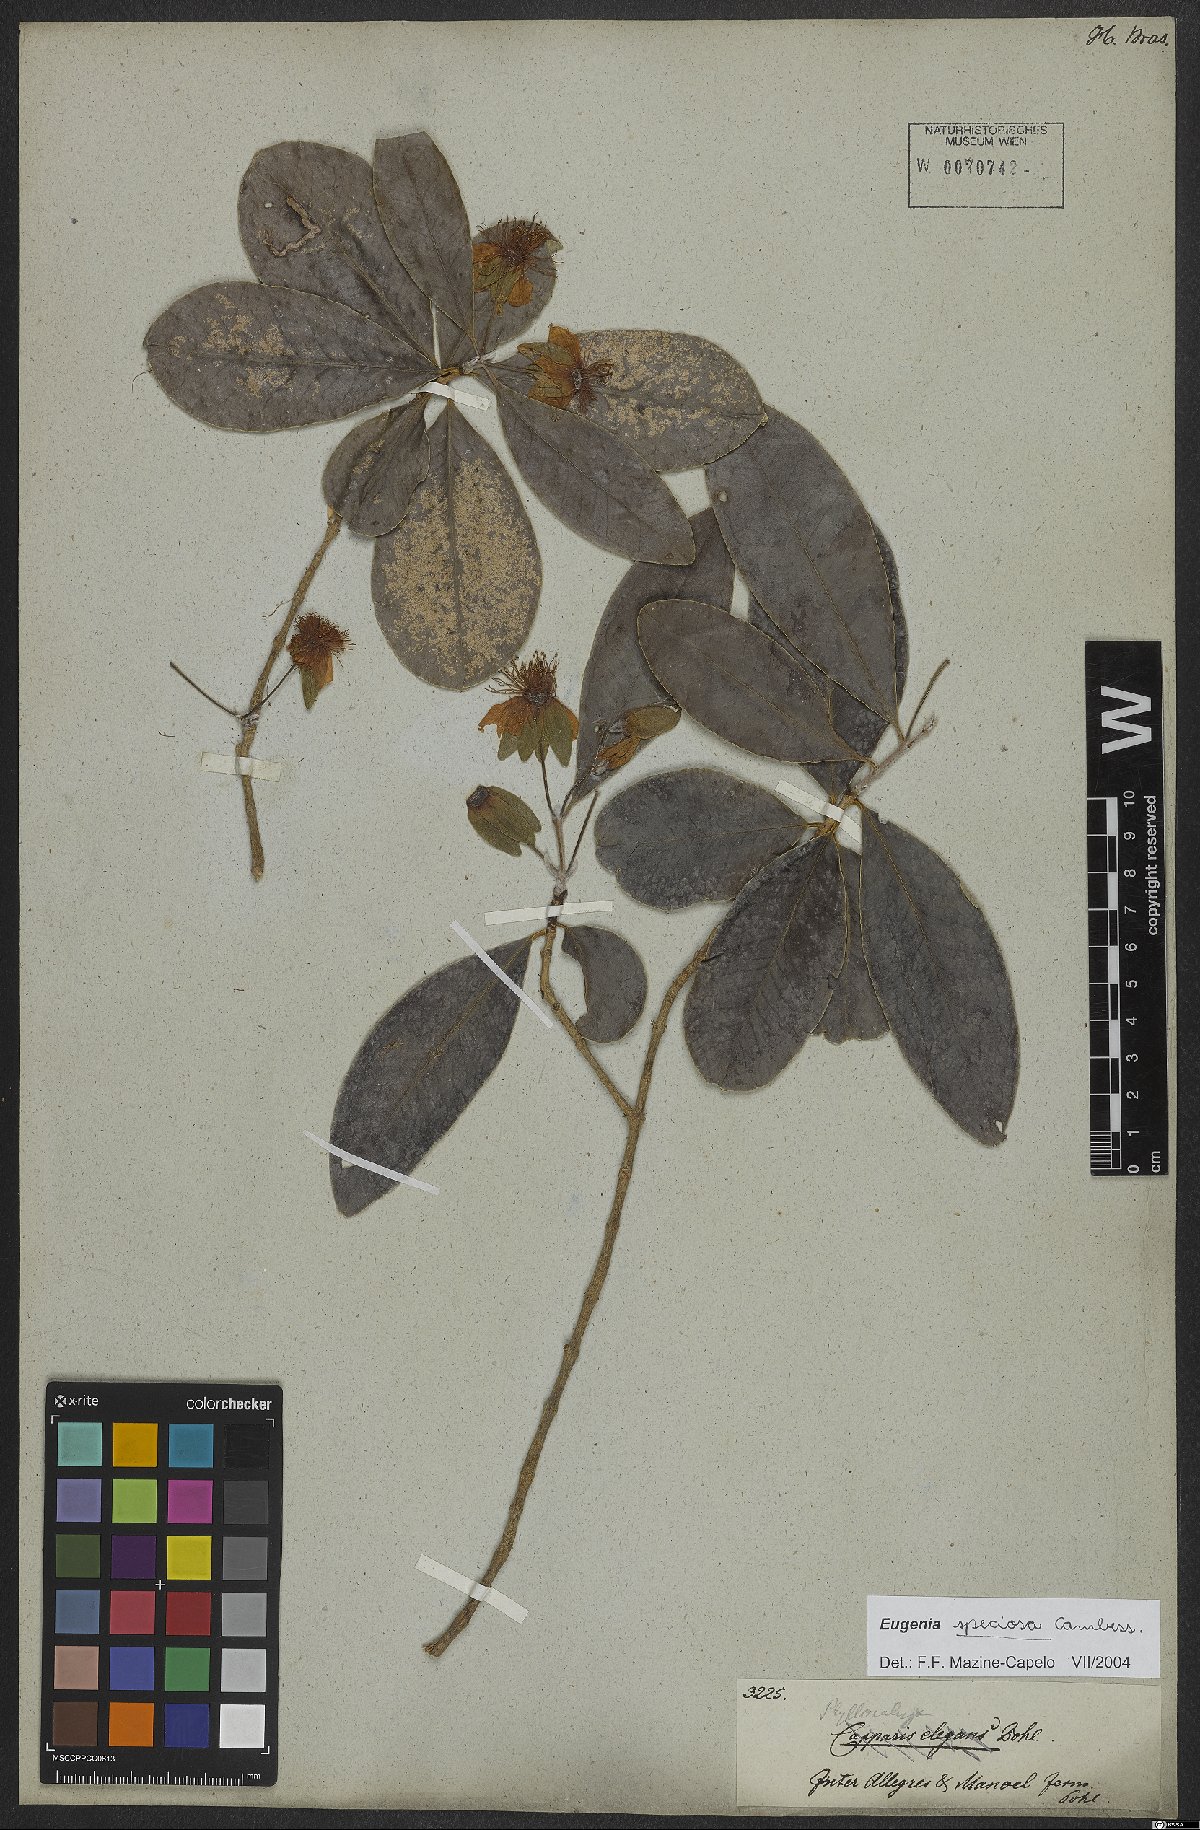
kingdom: Plantae
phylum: Tracheophyta
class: Magnoliopsida
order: Myrtales
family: Myrtaceae
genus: Eugenia
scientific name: Eugenia speciosa
